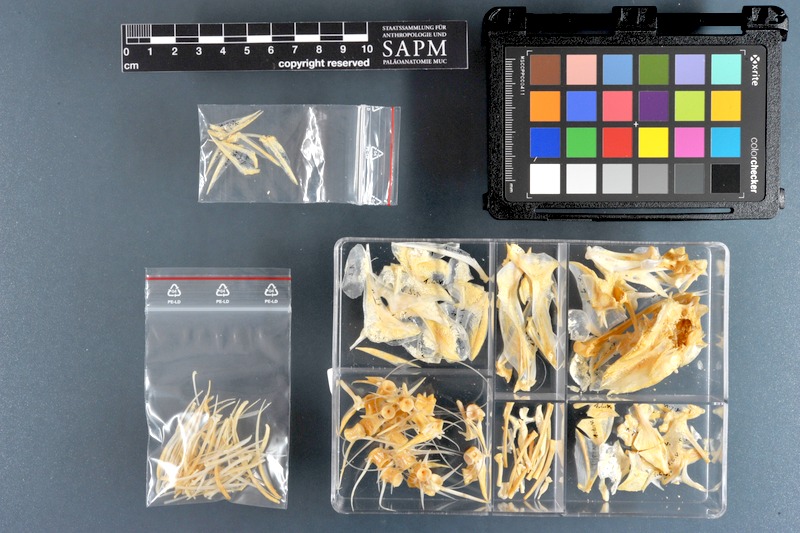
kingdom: Animalia
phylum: Chordata
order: Perciformes
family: Lutjanidae
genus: Lutjanus
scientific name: Lutjanus vitta
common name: Brownstripe red snapper
